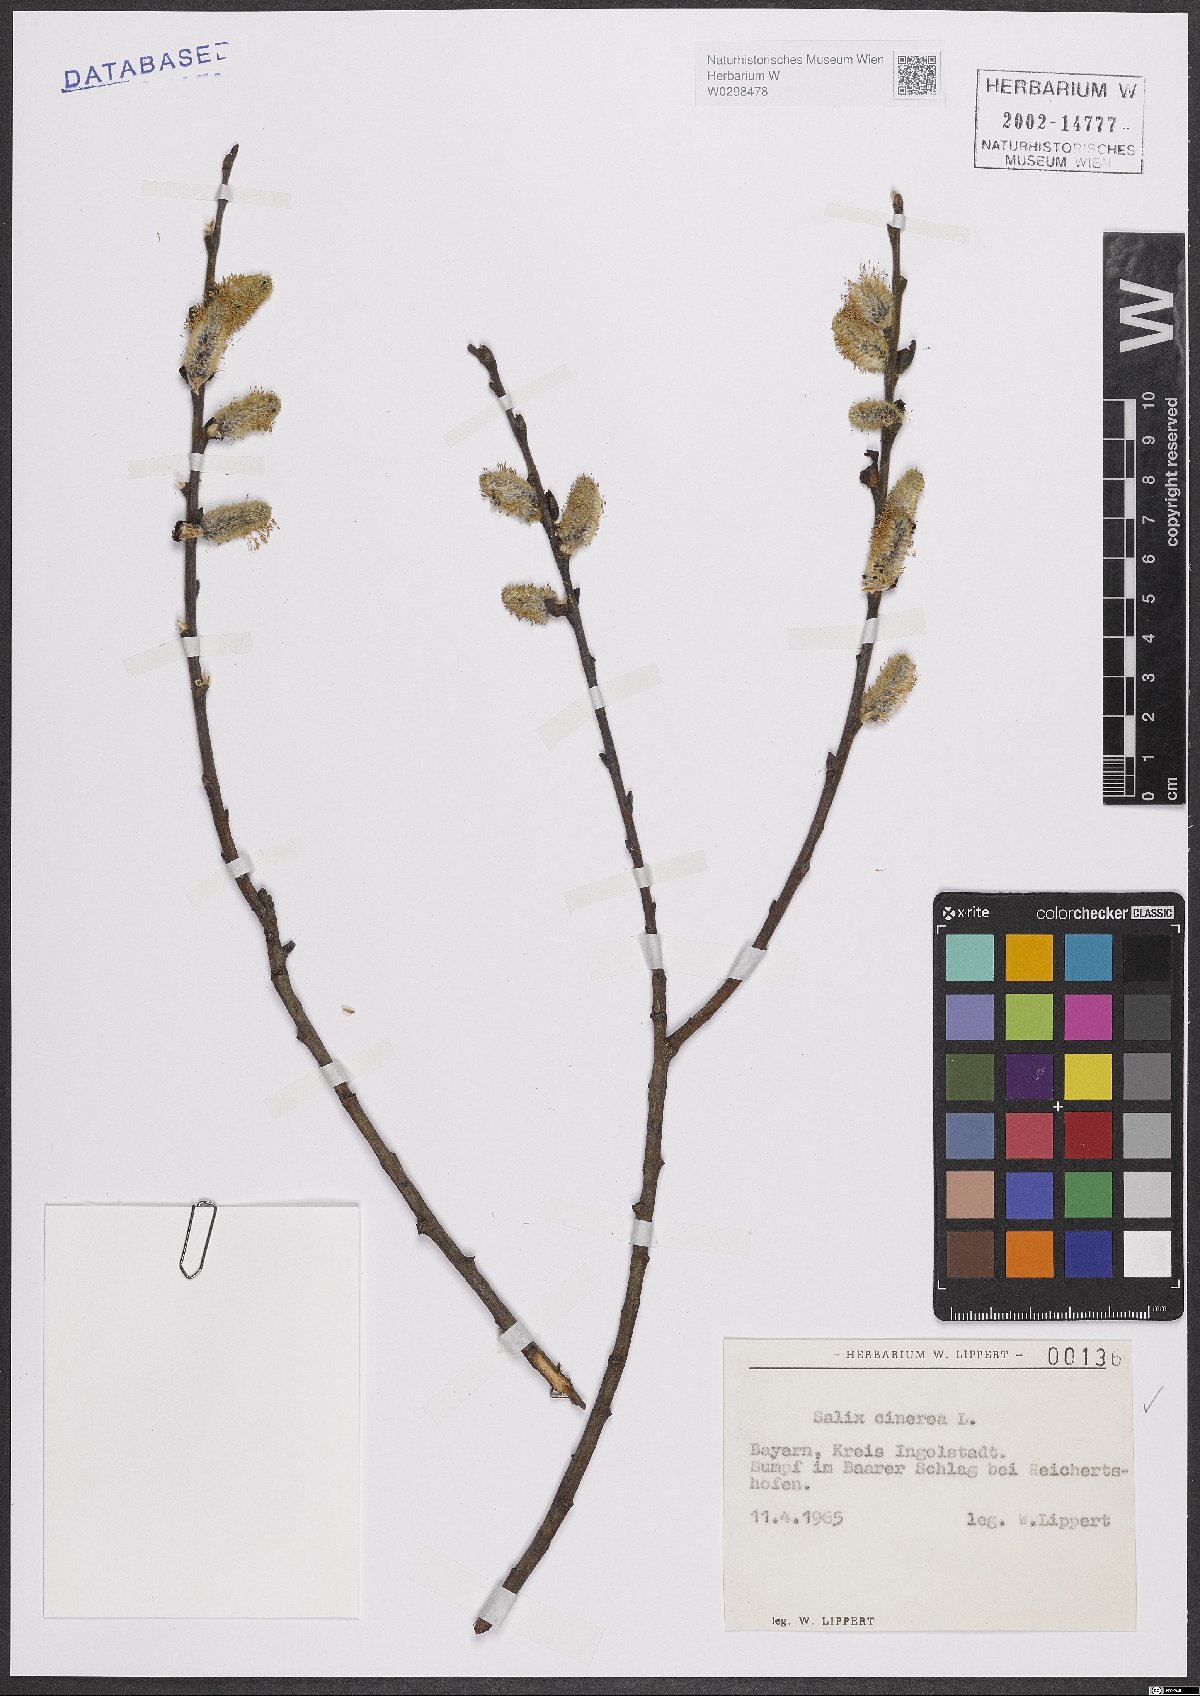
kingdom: Plantae
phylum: Tracheophyta
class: Magnoliopsida
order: Malpighiales
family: Salicaceae
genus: Salix
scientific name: Salix cinerea
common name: Common sallow
